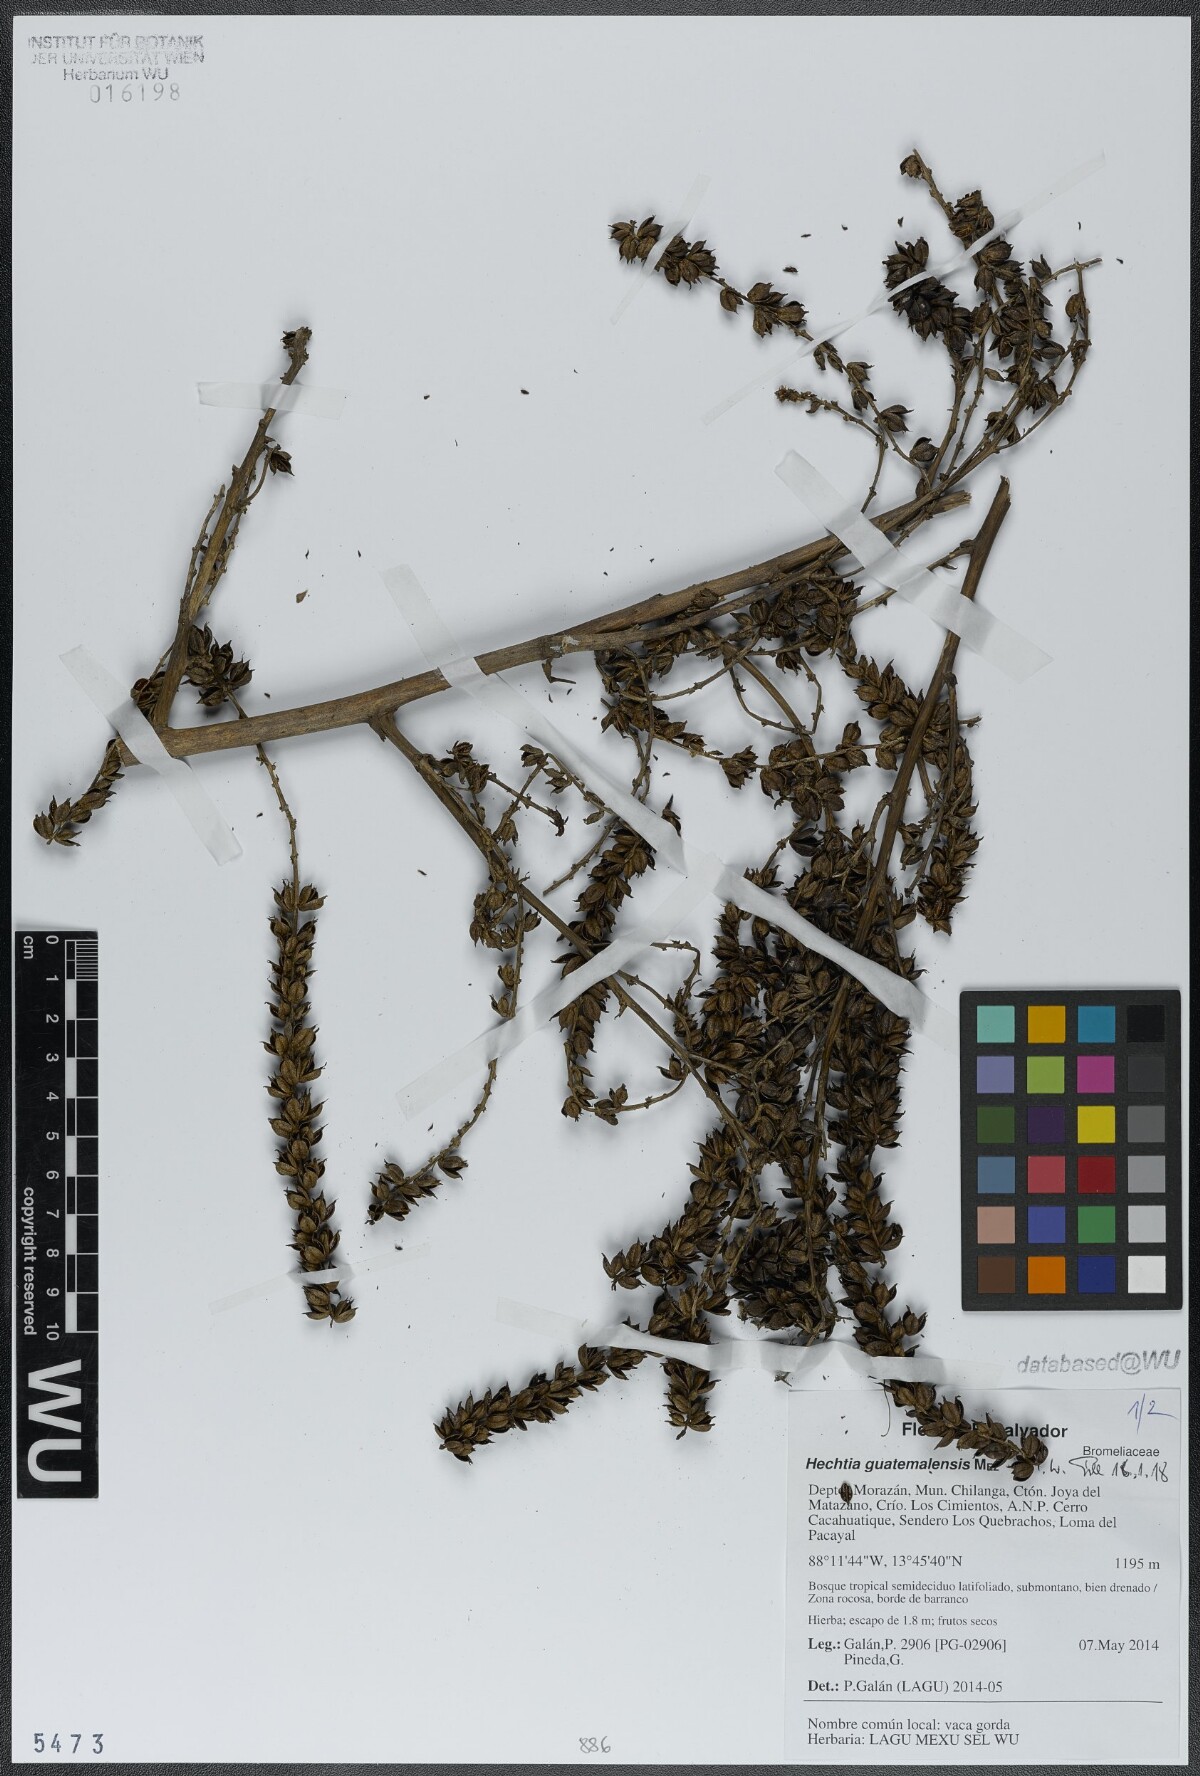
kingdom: Plantae
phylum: Tracheophyta
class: Liliopsida
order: Poales
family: Bromeliaceae
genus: Hechtia
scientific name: Hechtia guatemalensis
